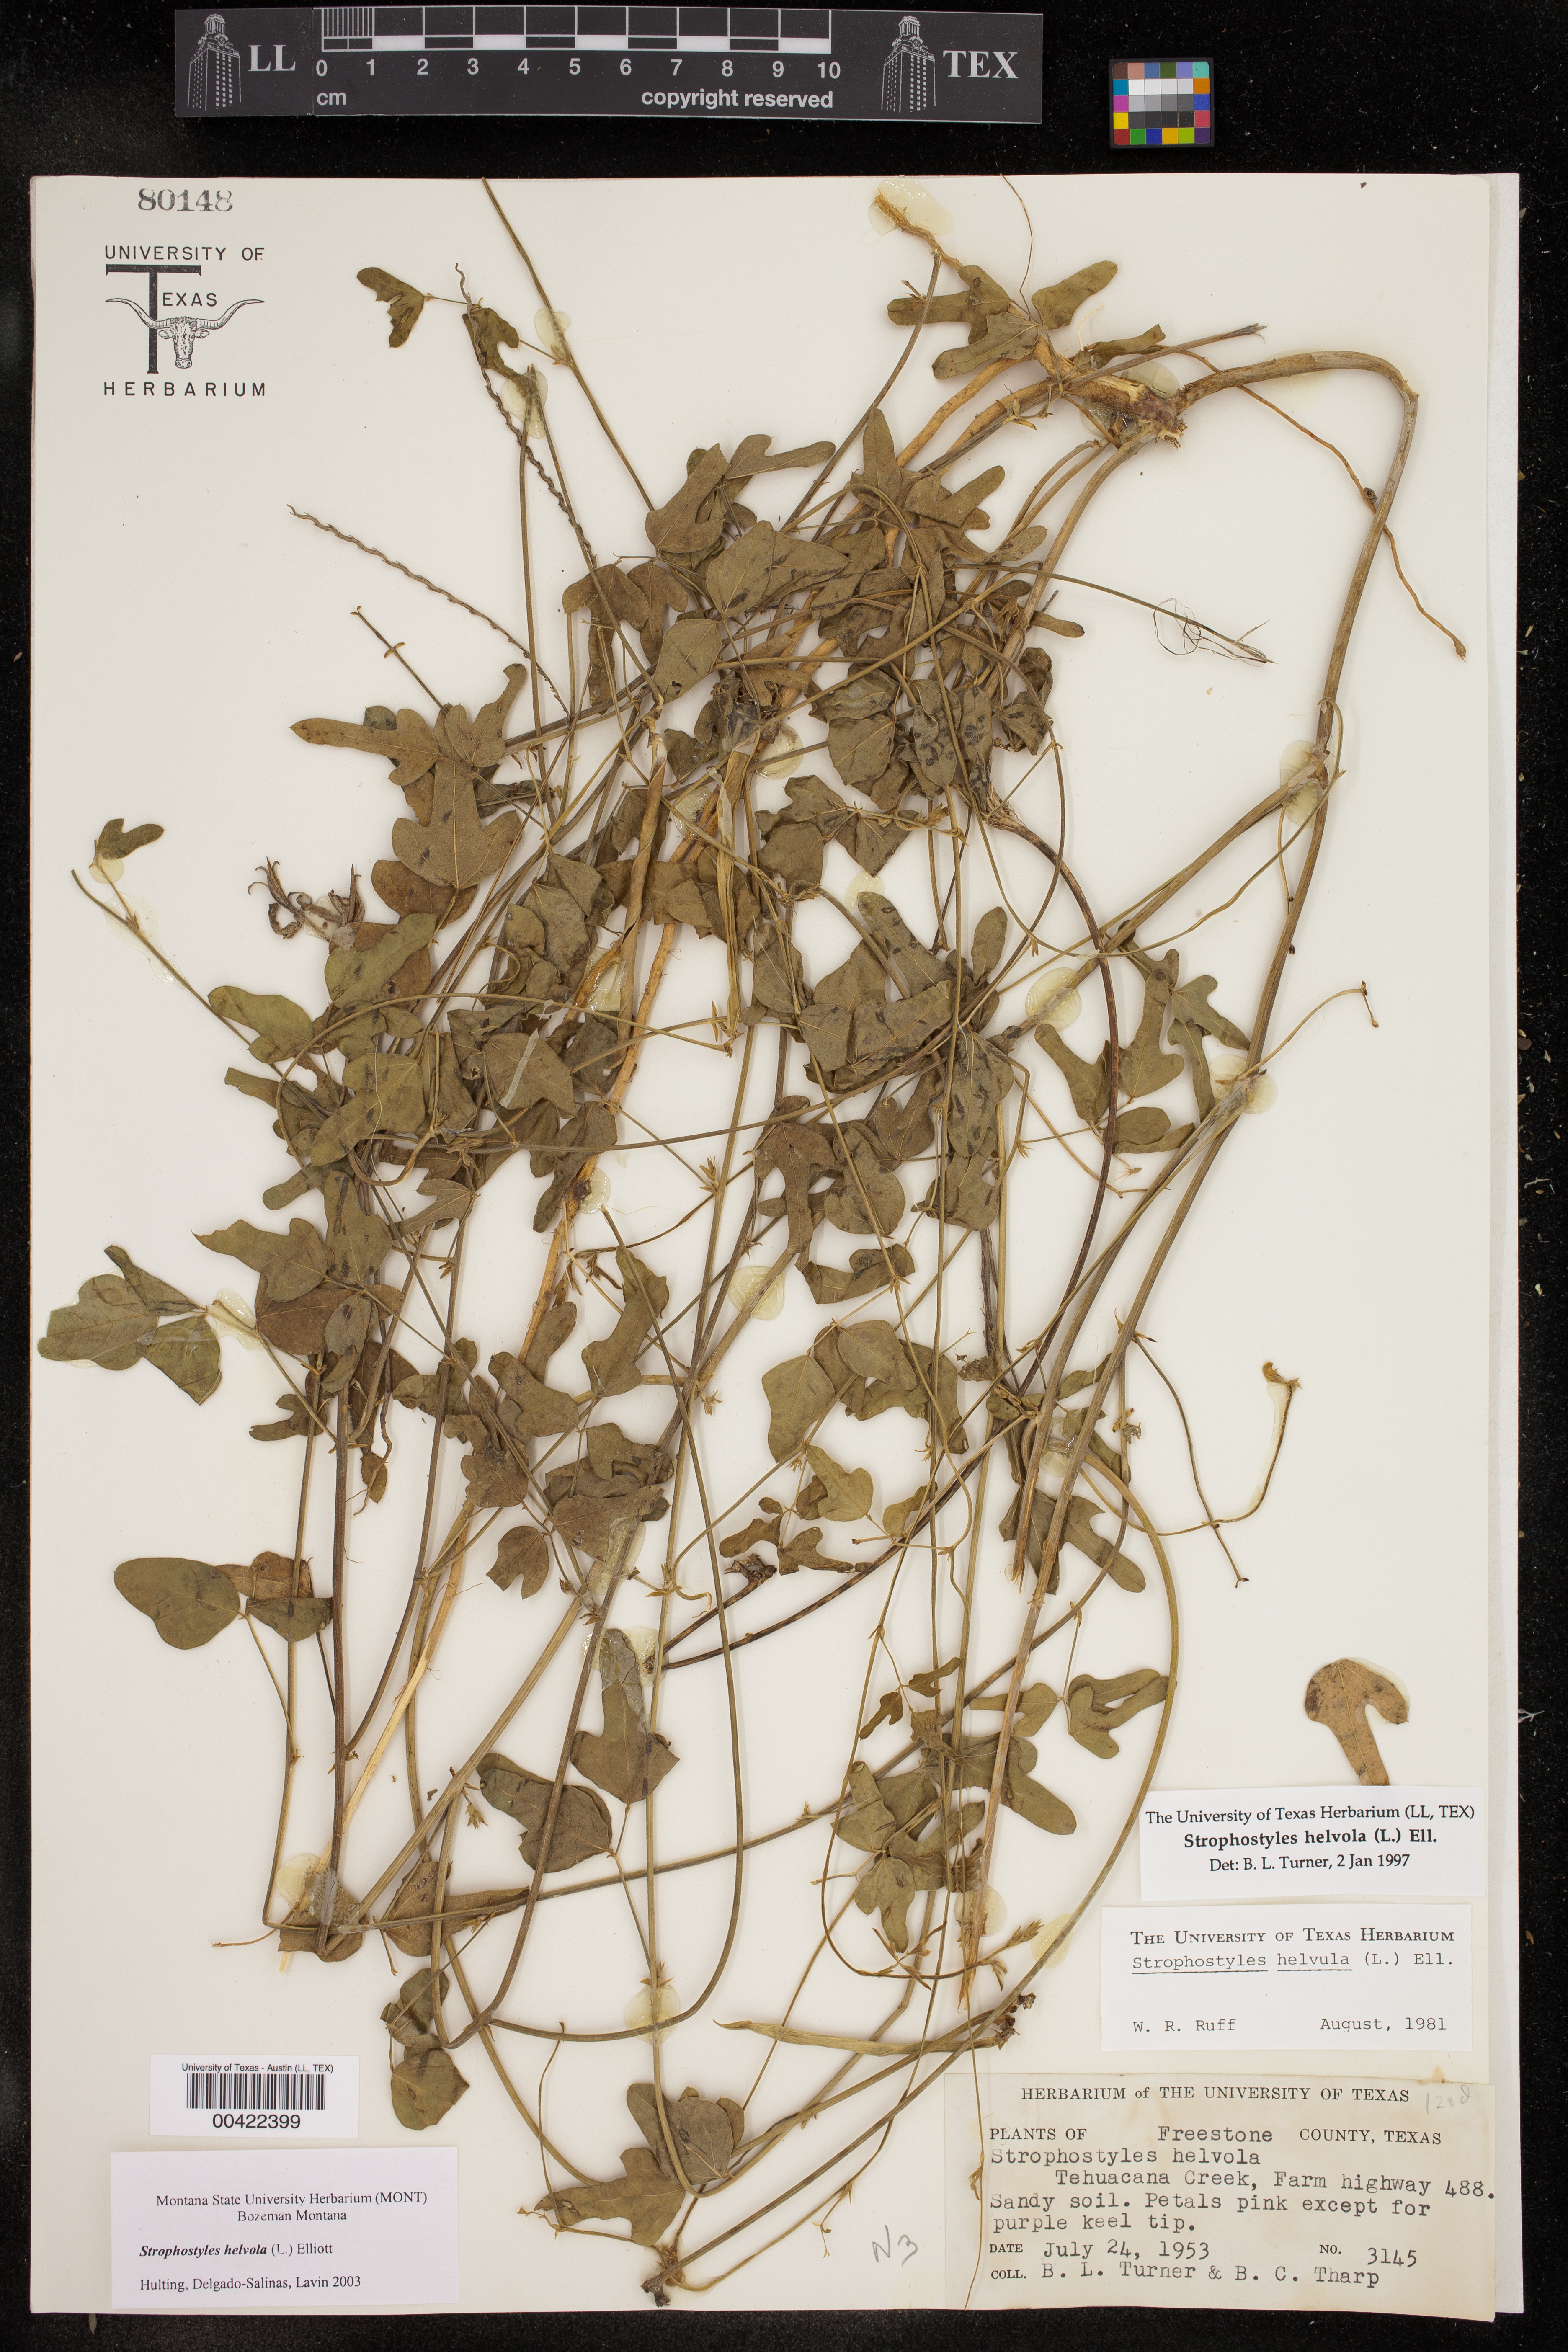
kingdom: Plantae
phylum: Tracheophyta
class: Magnoliopsida
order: Fabales
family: Fabaceae
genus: Strophostyles
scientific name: Strophostyles helvola
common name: Trailing wild bean
